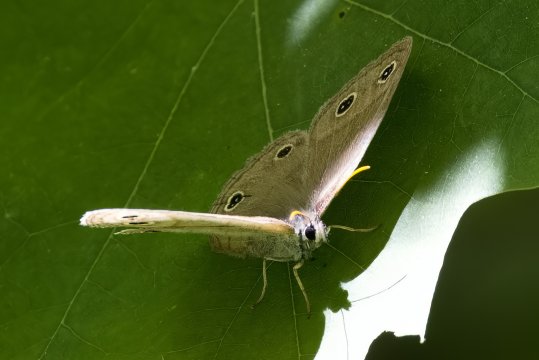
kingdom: Animalia
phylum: Arthropoda
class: Insecta
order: Lepidoptera
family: Nymphalidae
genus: Euptychia
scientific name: Euptychia cymela
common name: Little Wood Satyr
